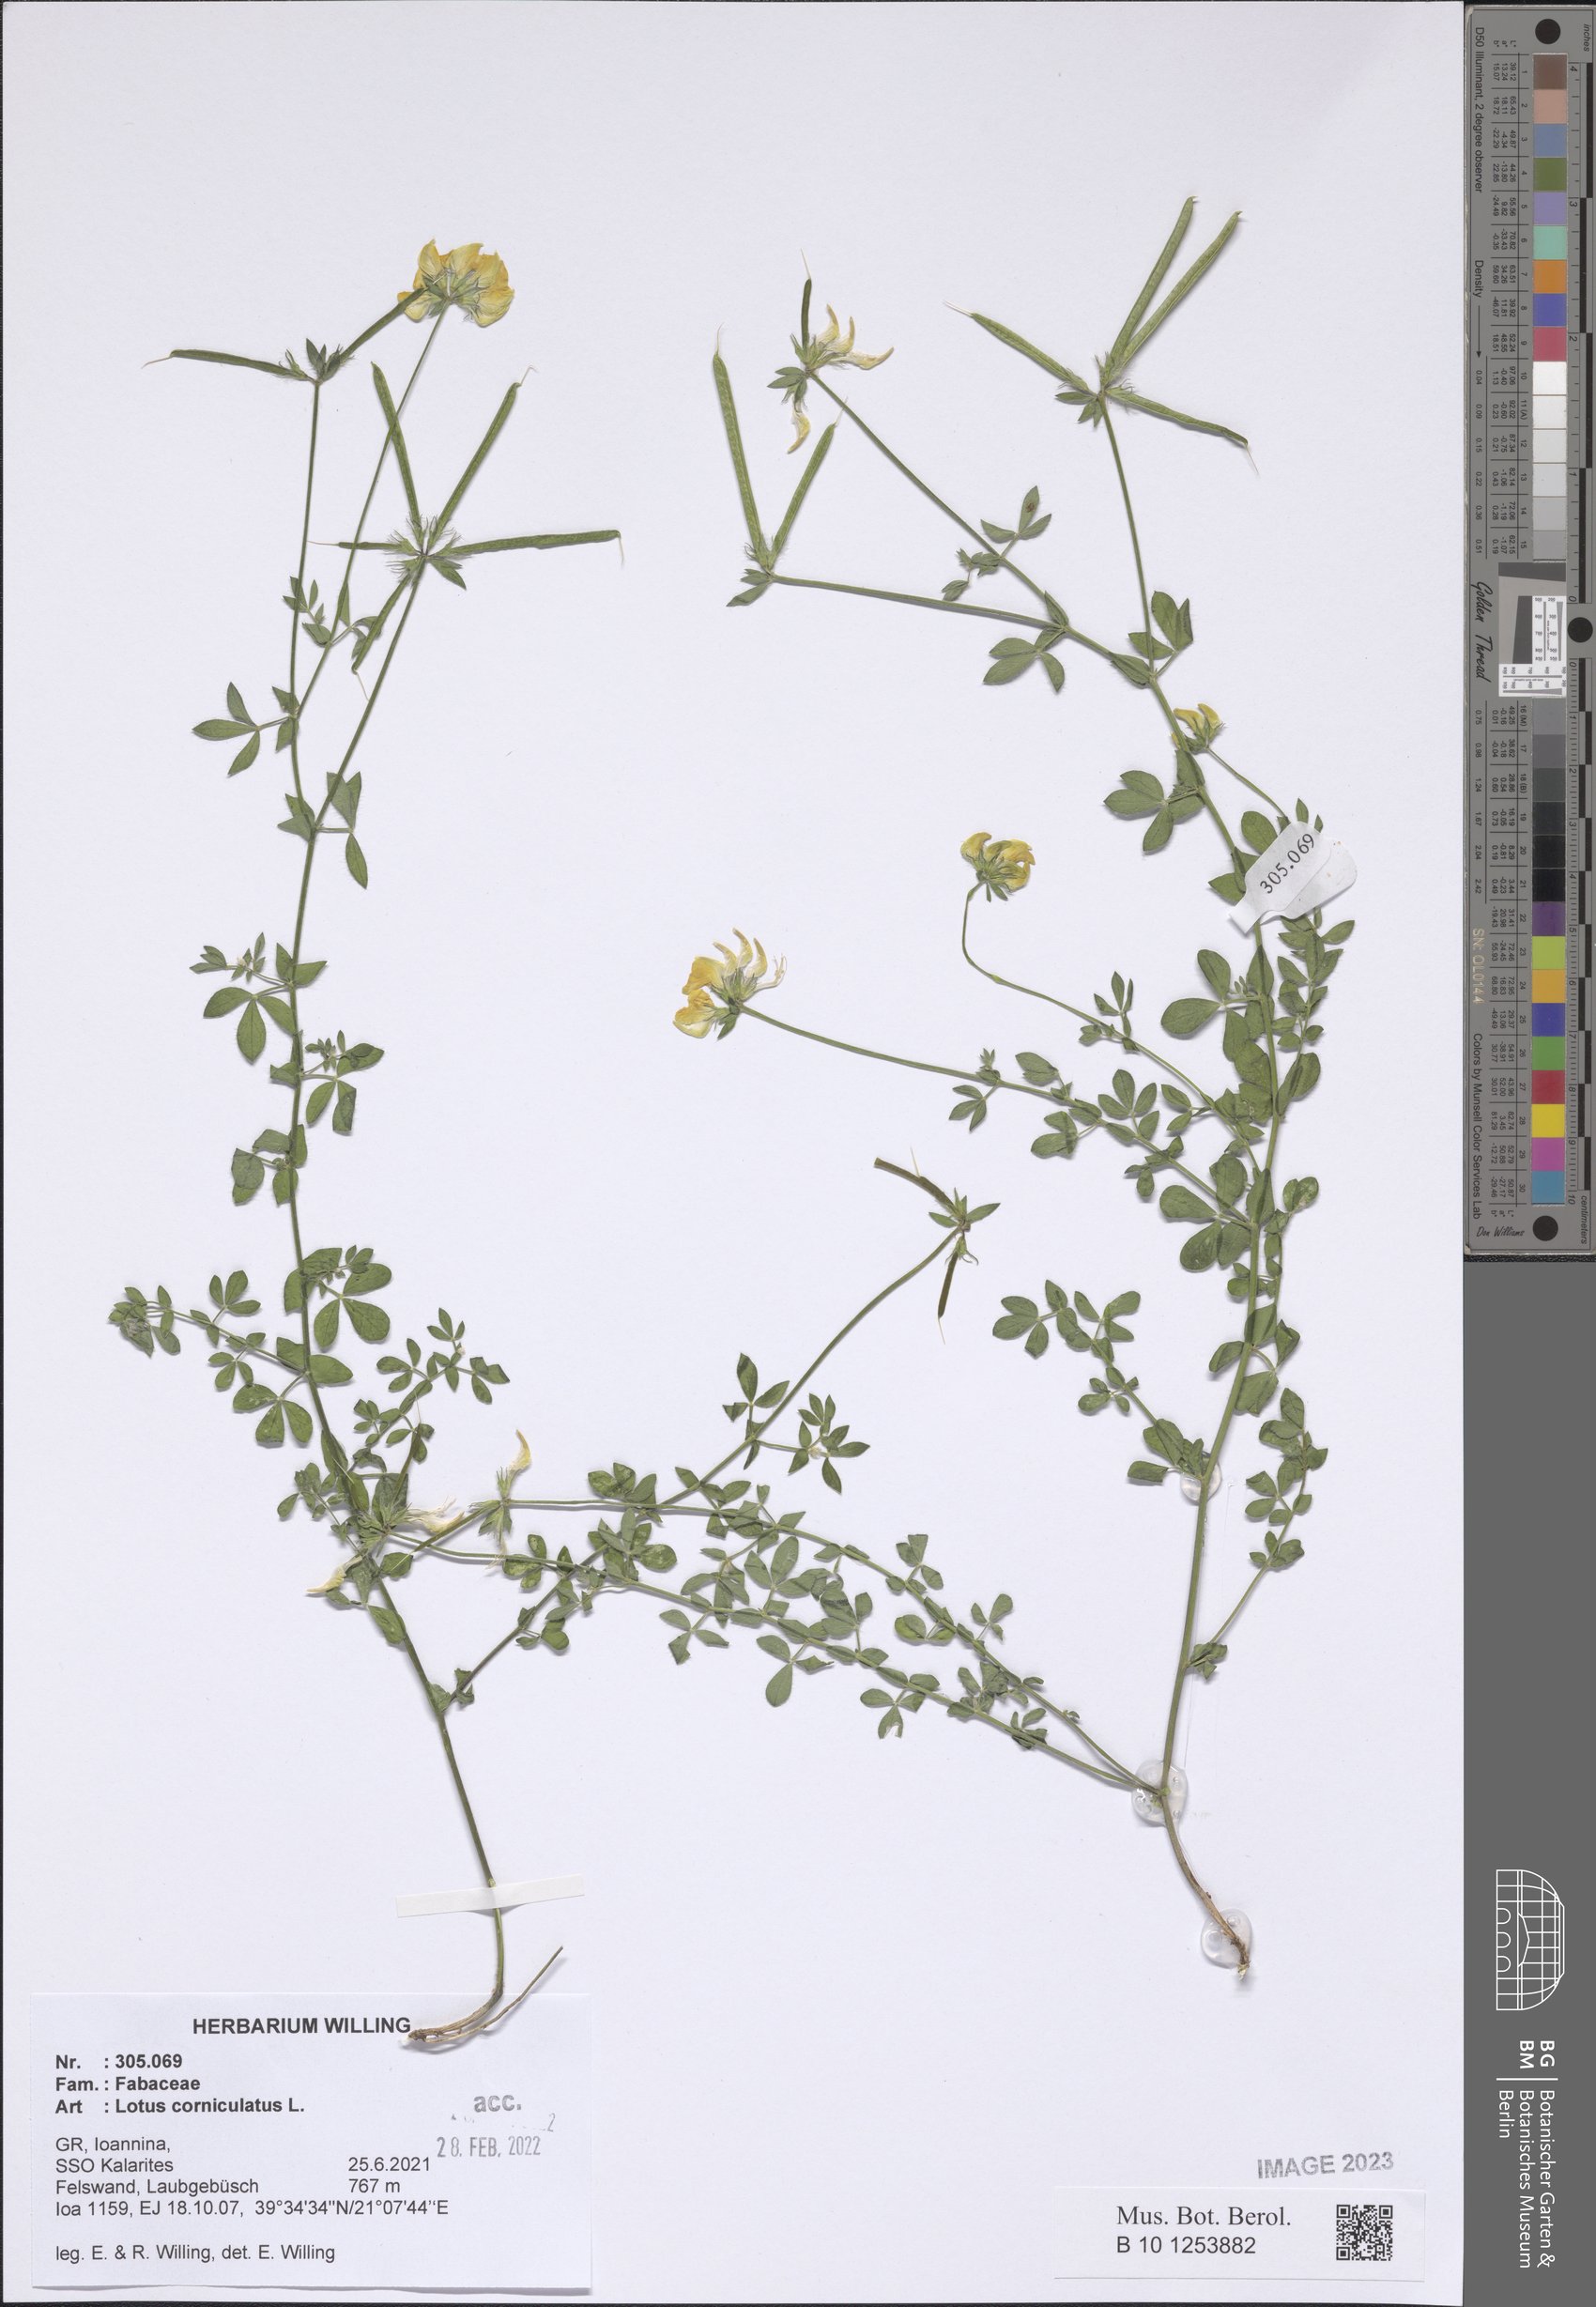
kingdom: Plantae
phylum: Tracheophyta
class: Magnoliopsida
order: Fabales
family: Fabaceae
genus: Lotus
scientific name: Lotus corniculatus
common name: Common bird's-foot-trefoil
